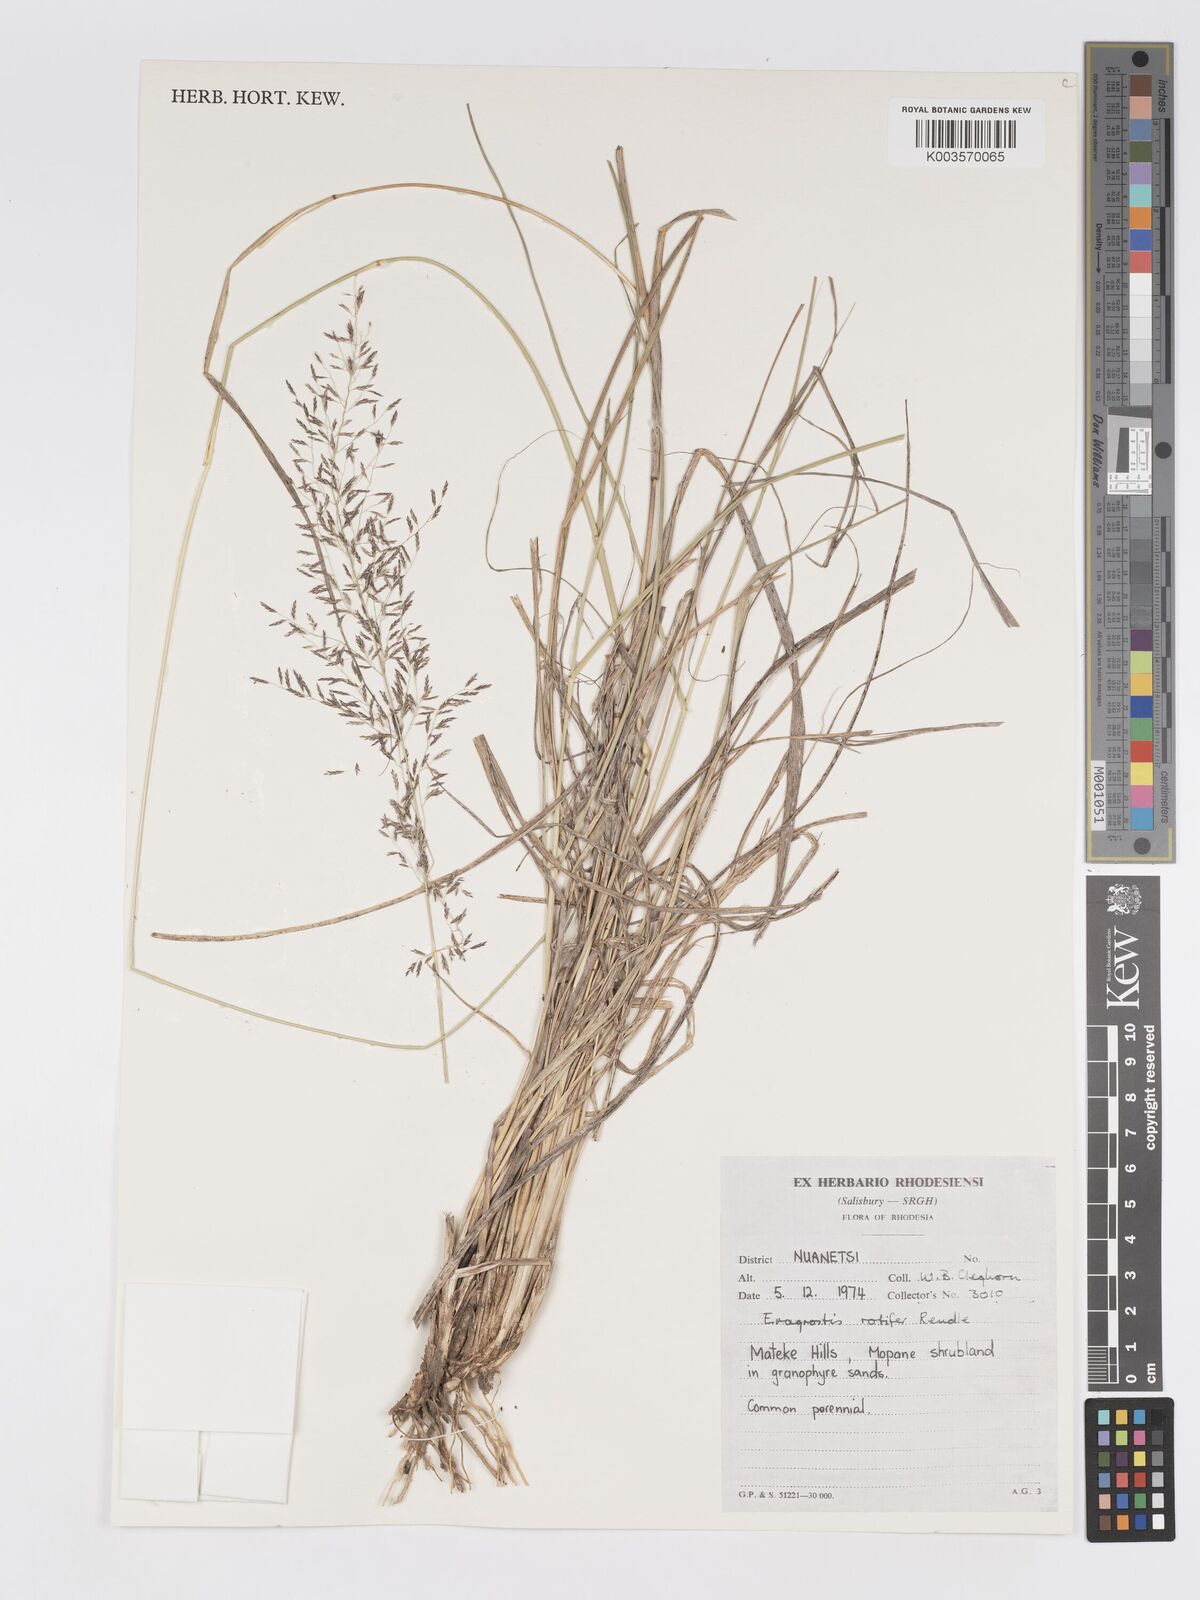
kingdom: Plantae
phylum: Tracheophyta
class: Liliopsida
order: Poales
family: Poaceae
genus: Eragrostis
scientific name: Eragrostis rotifer
